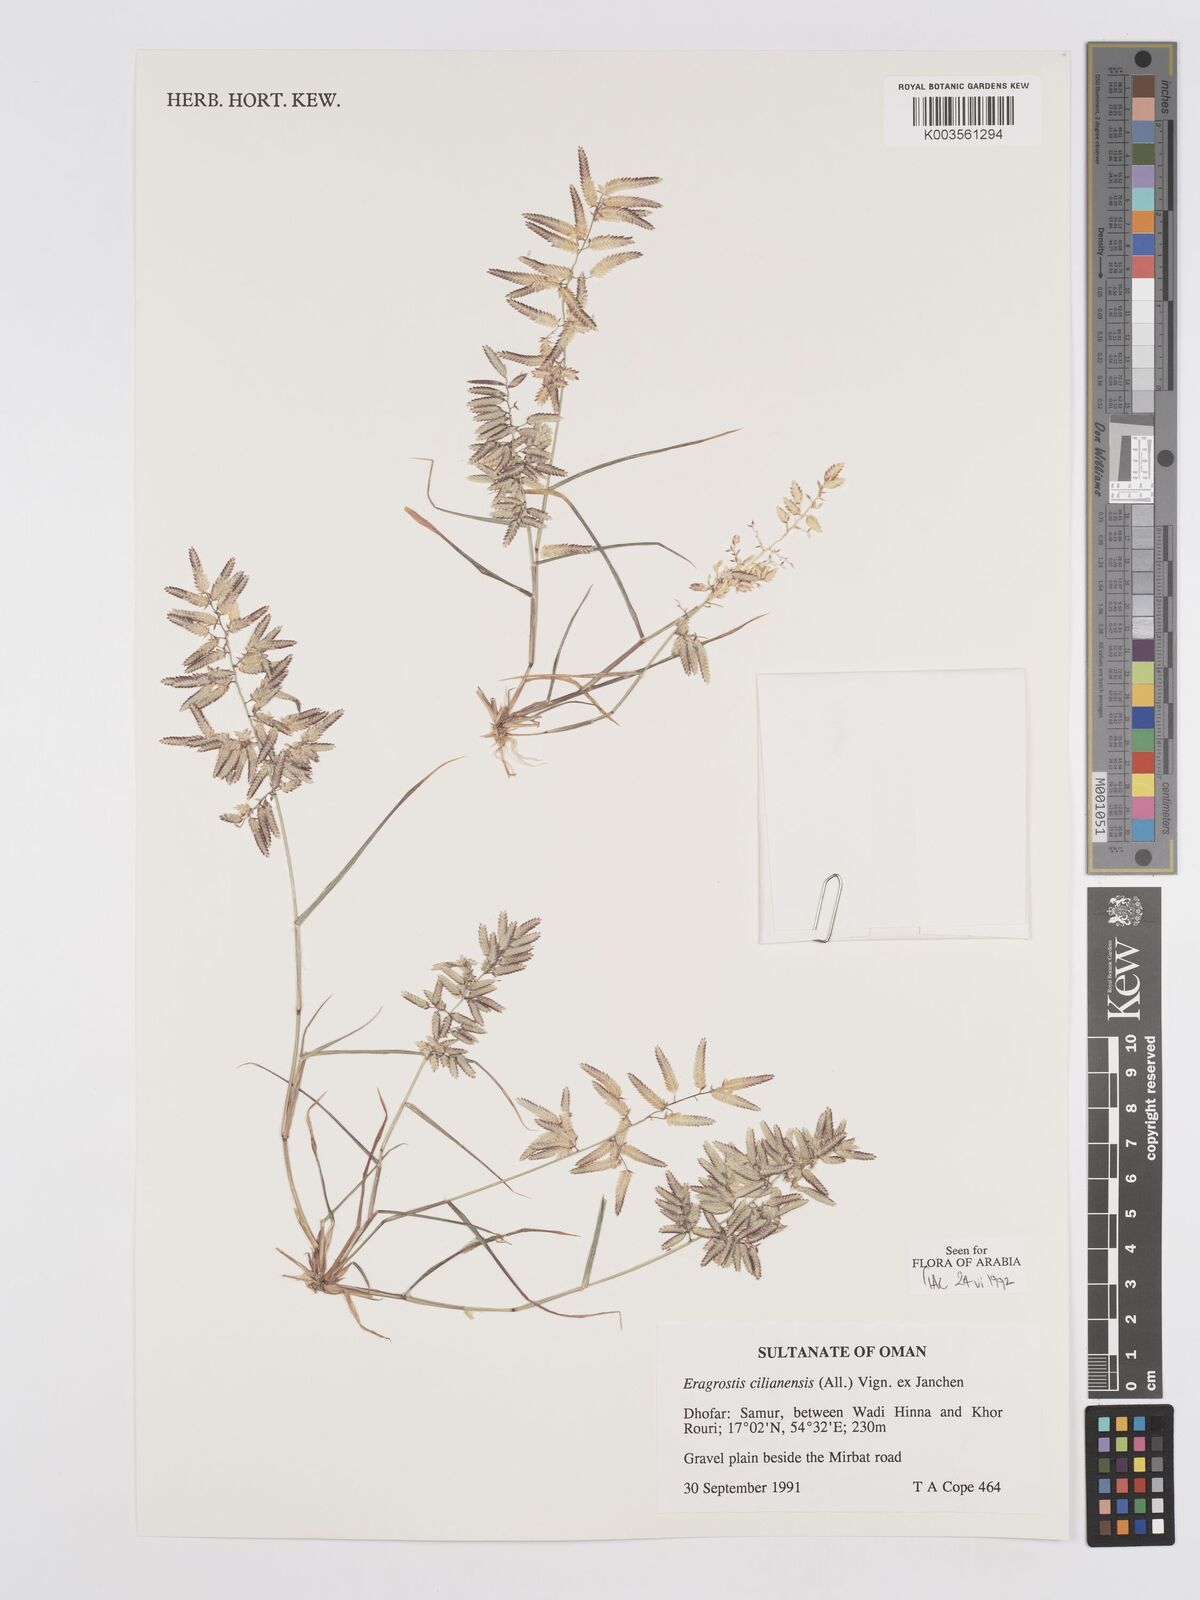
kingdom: Plantae
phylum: Tracheophyta
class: Liliopsida
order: Poales
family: Poaceae
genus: Eragrostis
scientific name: Eragrostis cilianensis
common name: Stinkgrass
